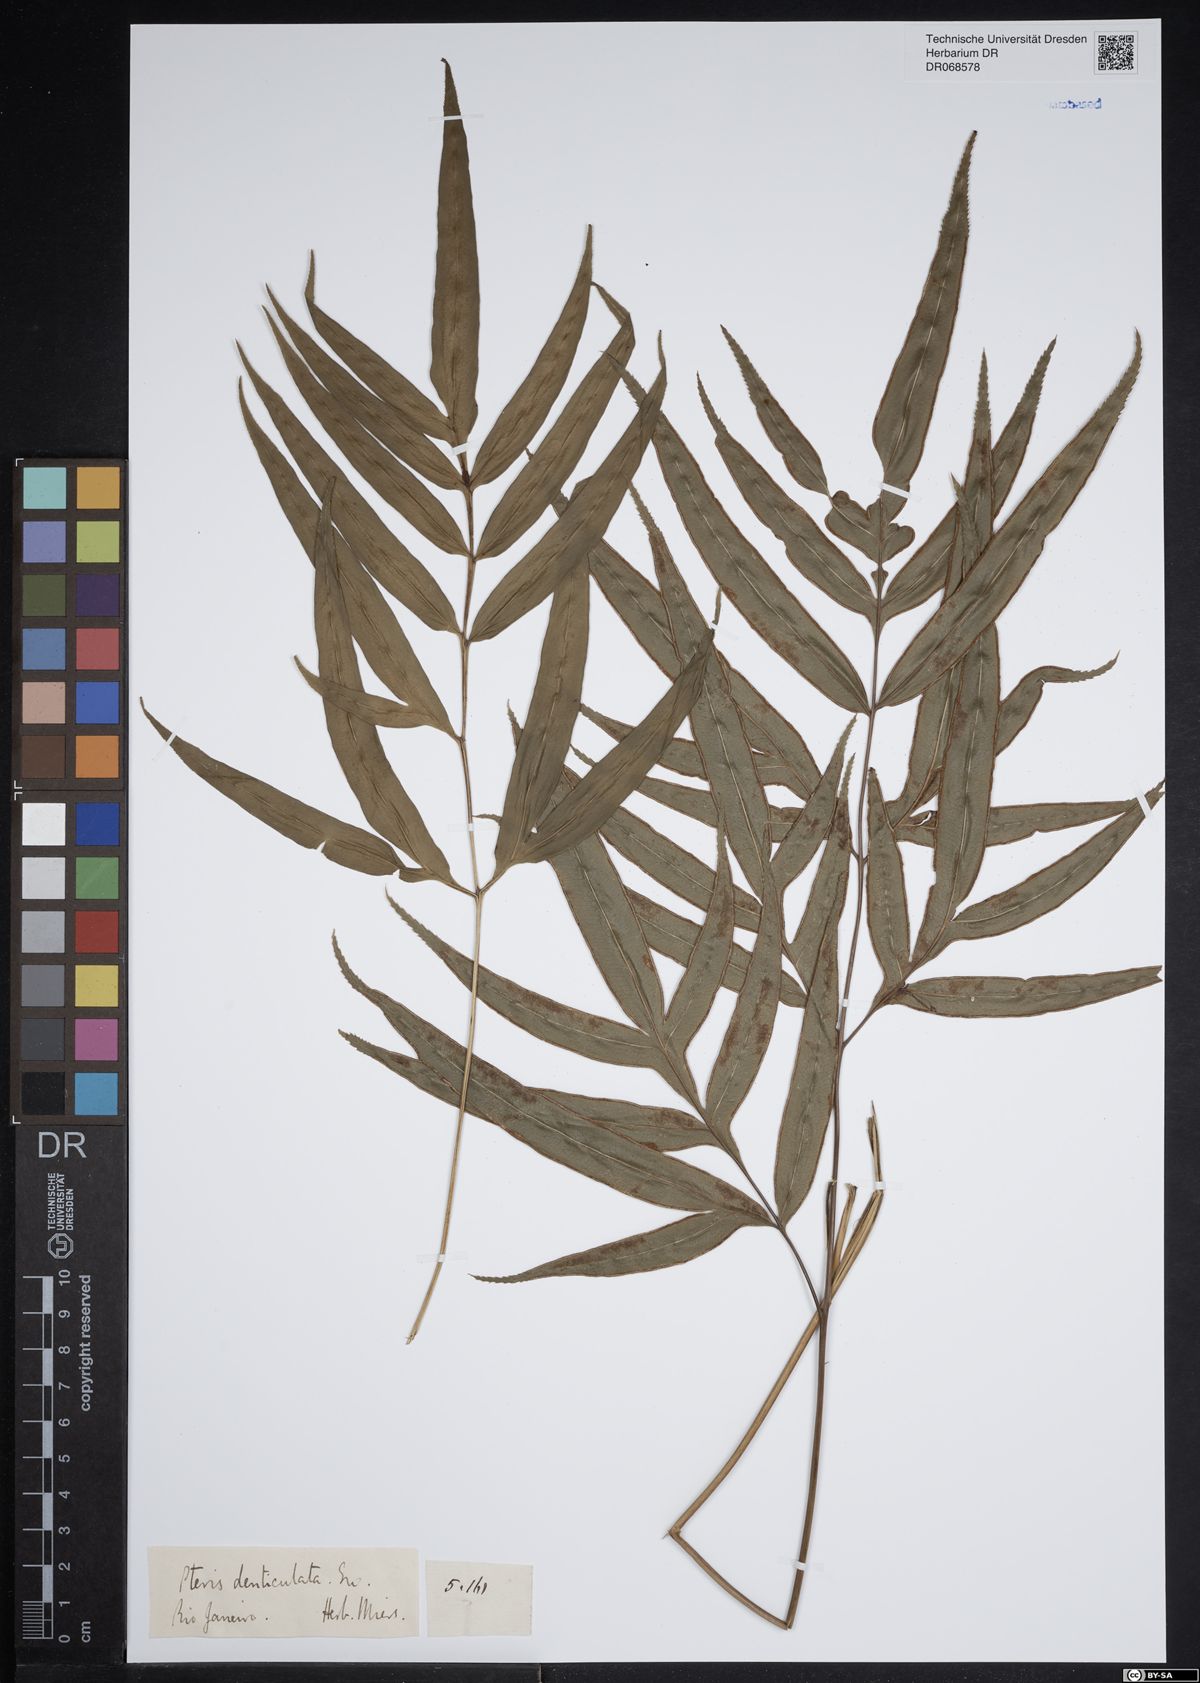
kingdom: Plantae
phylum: Tracheophyta
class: Polypodiopsida
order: Polypodiales
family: Pteridaceae
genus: Pteris
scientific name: Pteris denticulata
